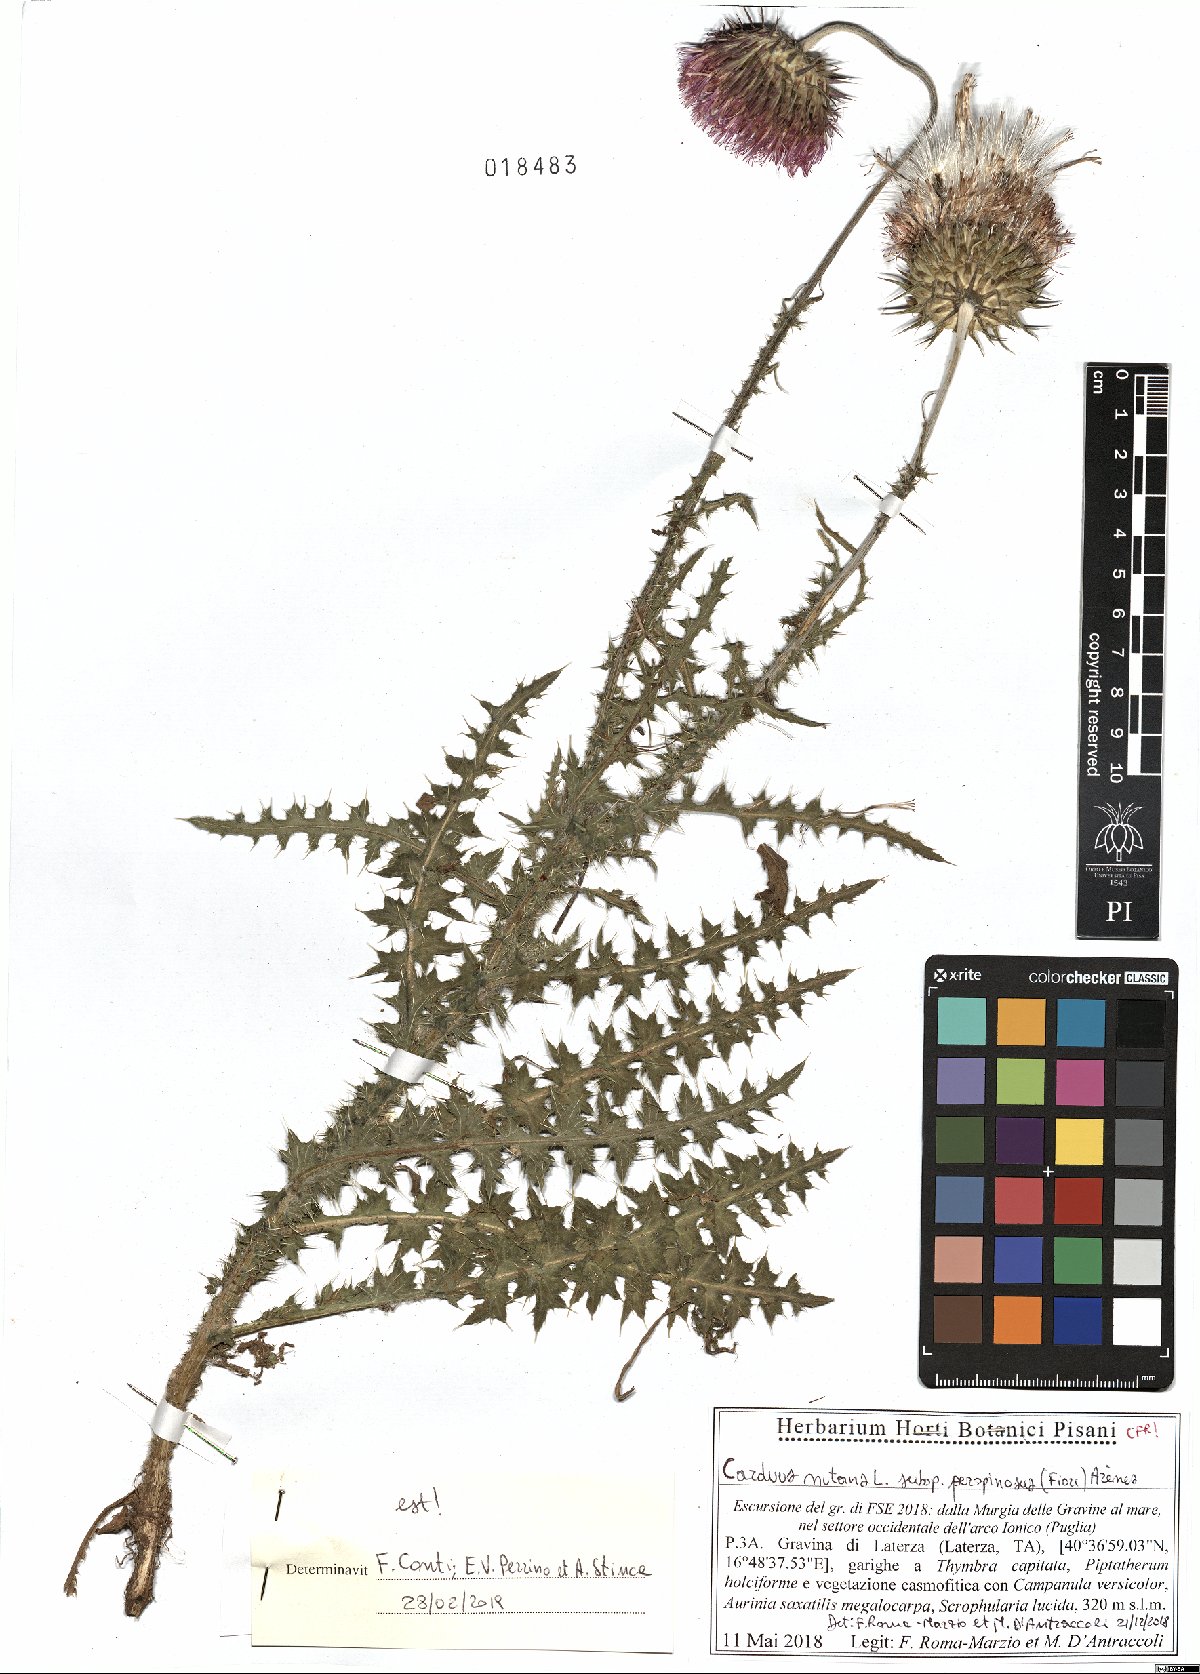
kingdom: Plantae
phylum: Tracheophyta
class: Magnoliopsida
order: Asterales
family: Asteraceae
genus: Carduus
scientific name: Carduus nutans
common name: Musk thistle
